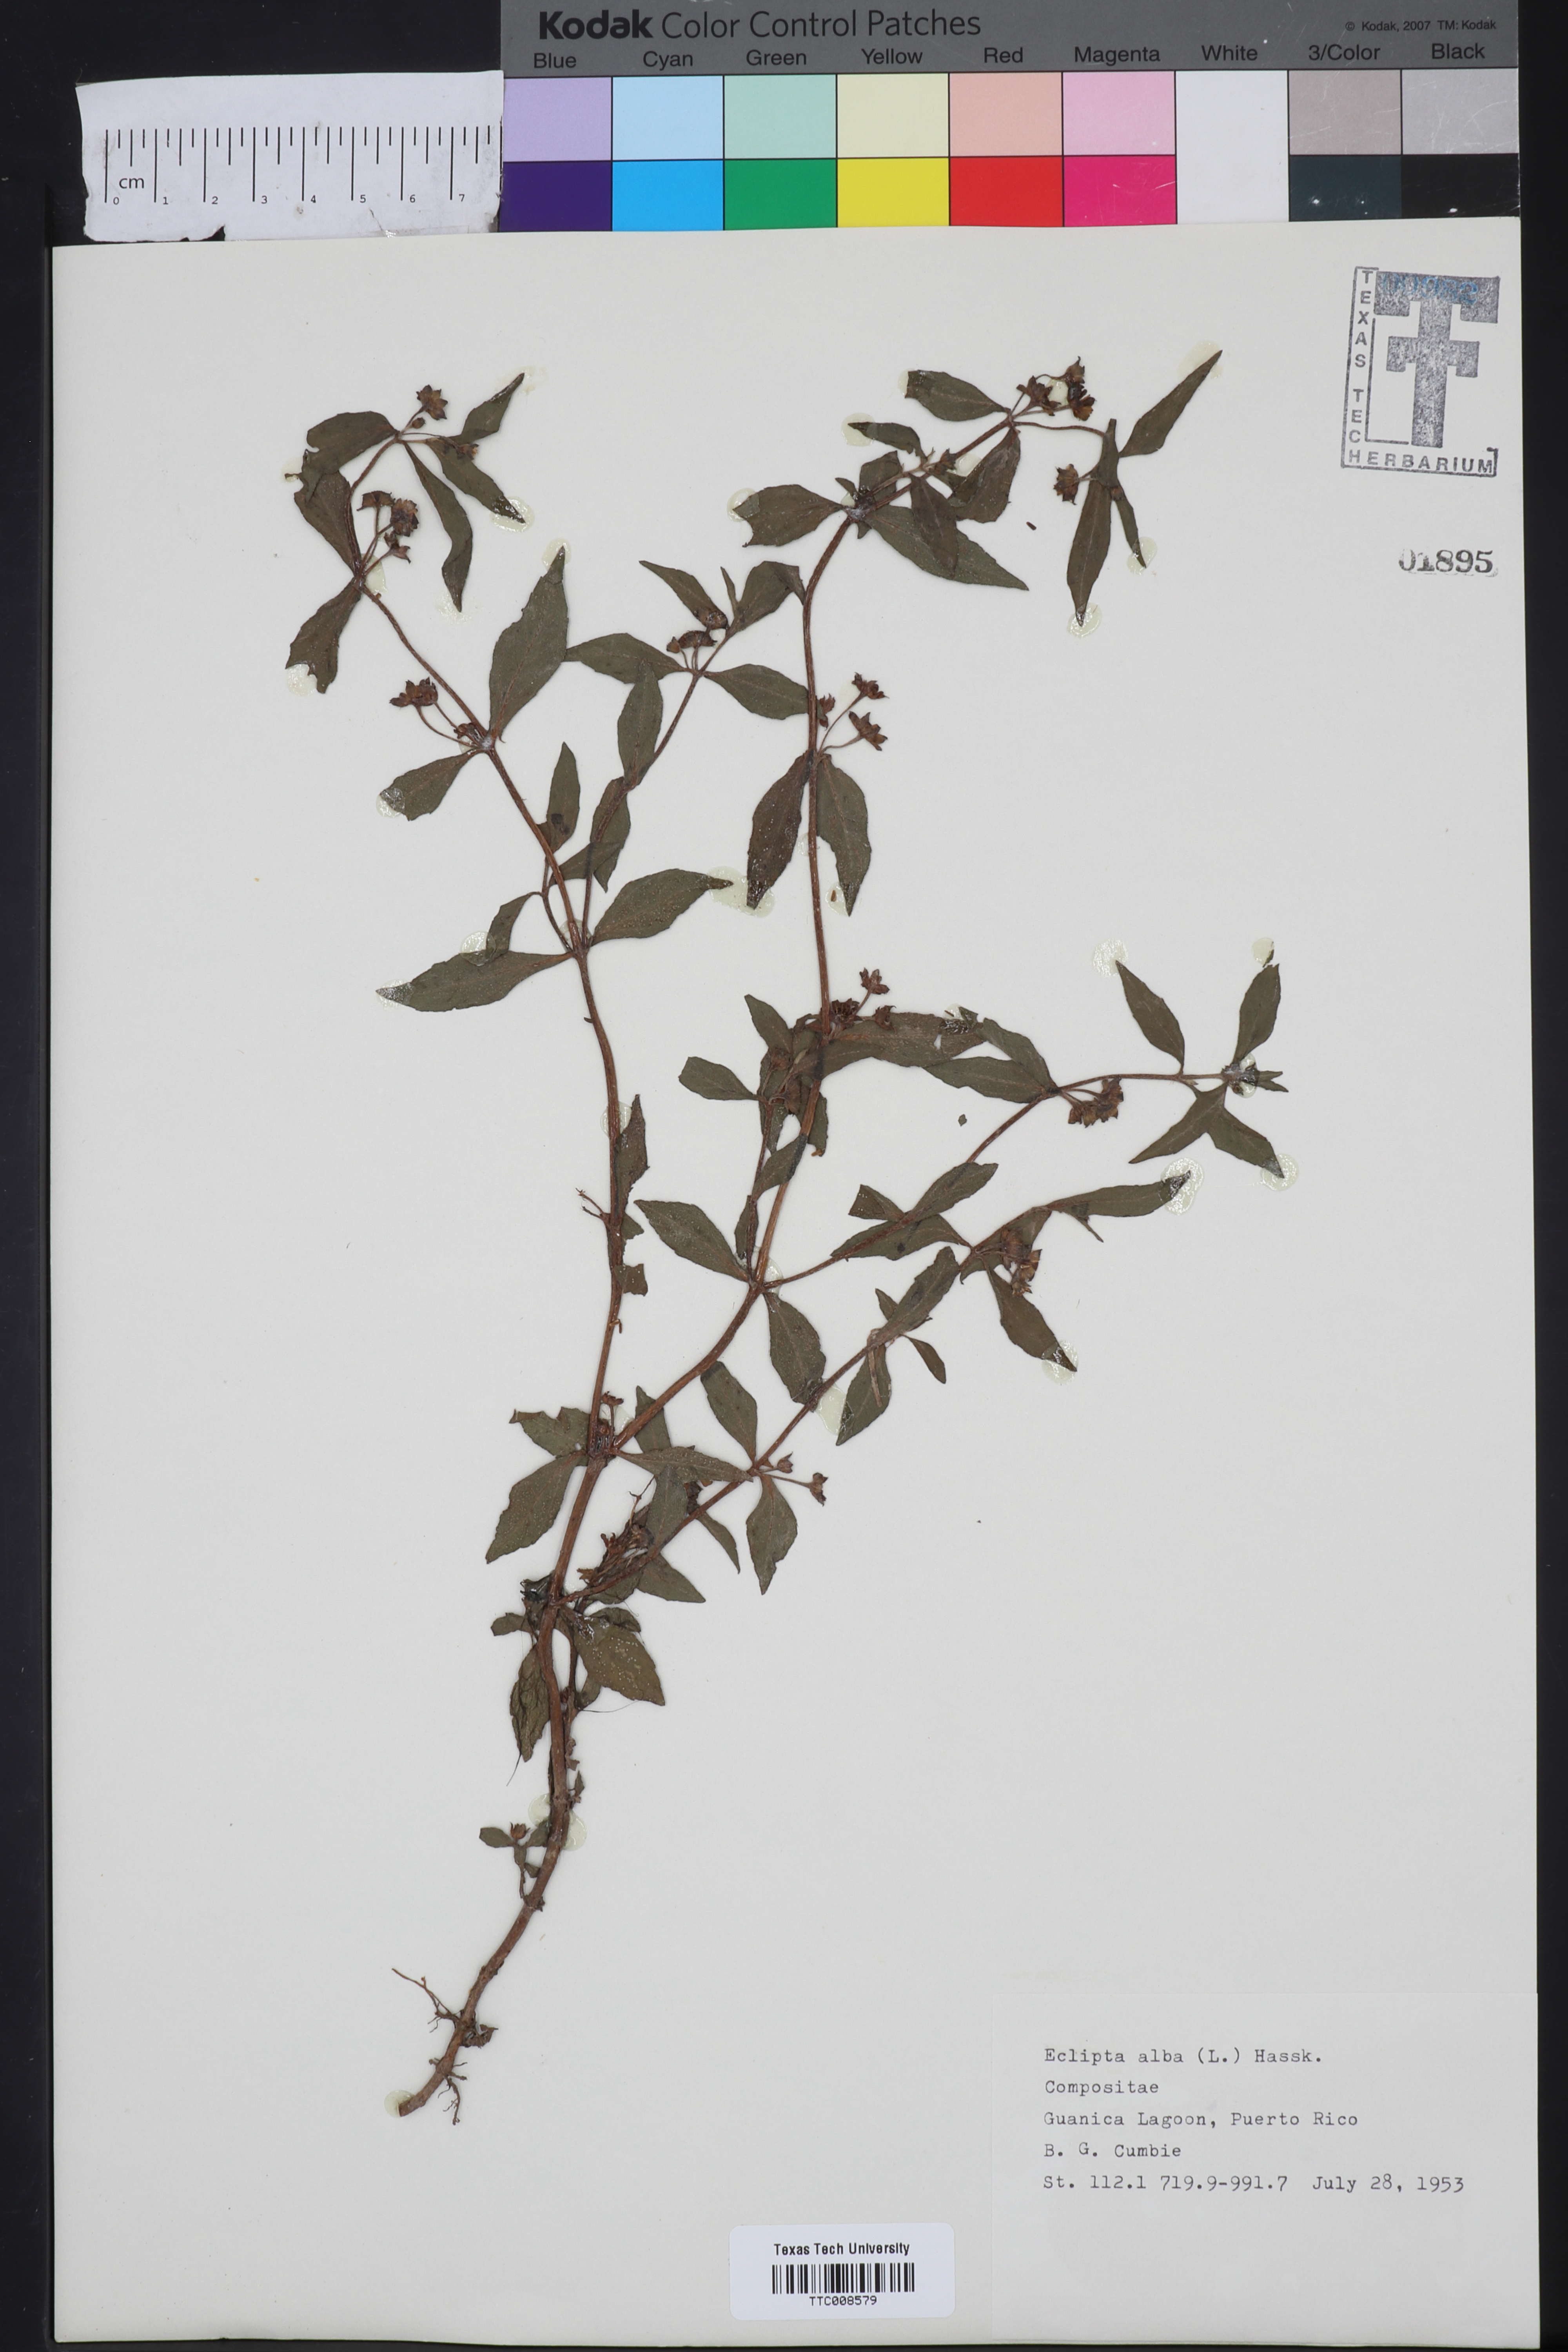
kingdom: Plantae
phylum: Tracheophyta
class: Magnoliopsida
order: Asterales
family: Asteraceae
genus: Eclipta
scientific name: Eclipta alba
